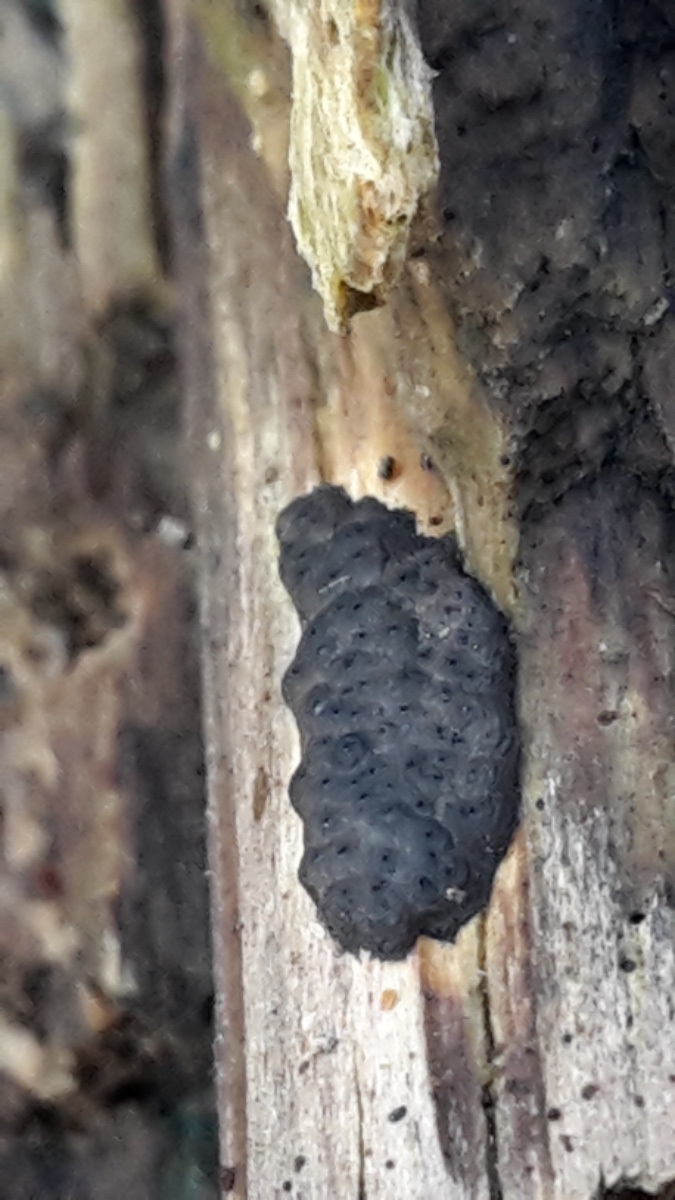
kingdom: Fungi
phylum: Ascomycota
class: Sordariomycetes
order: Xylariales
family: Xylariaceae
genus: Nemania
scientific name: Nemania
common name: kuldyne
